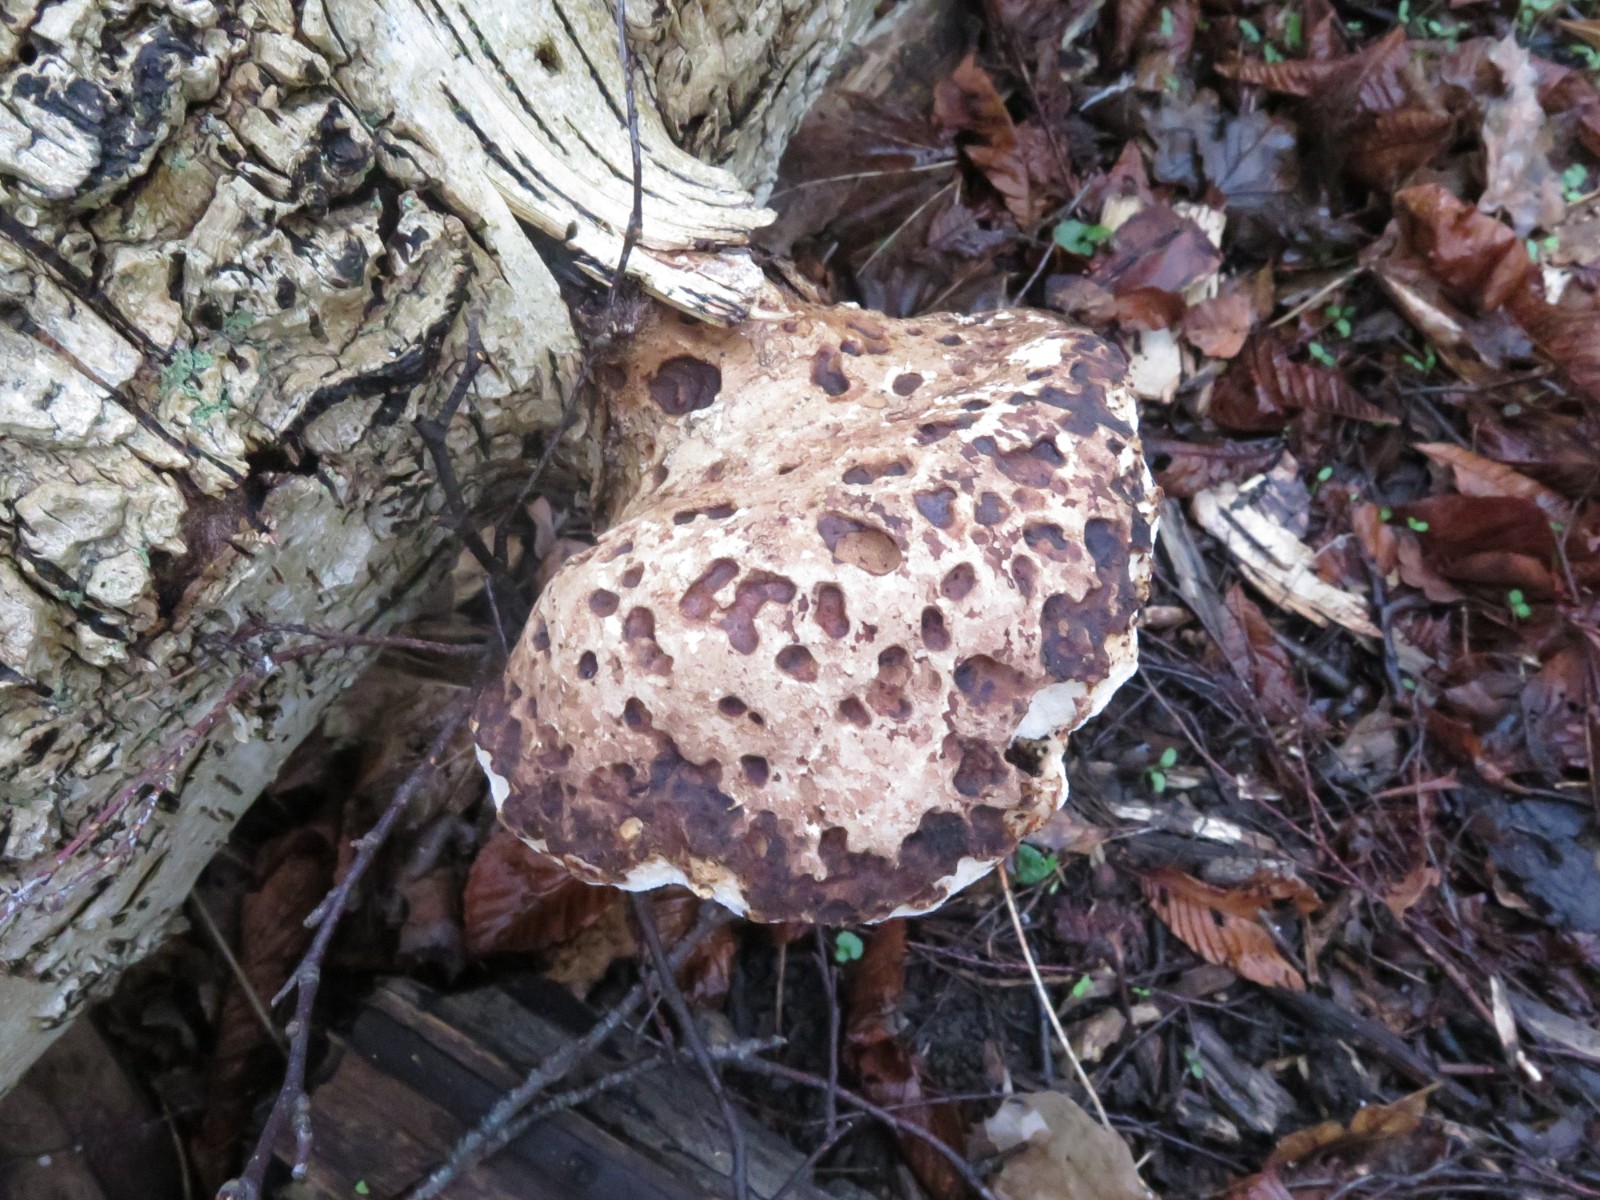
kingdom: Fungi
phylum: Basidiomycota
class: Agaricomycetes
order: Polyporales
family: Fomitopsidaceae
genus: Fomitopsis
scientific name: Fomitopsis betulina
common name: birkeporesvamp
